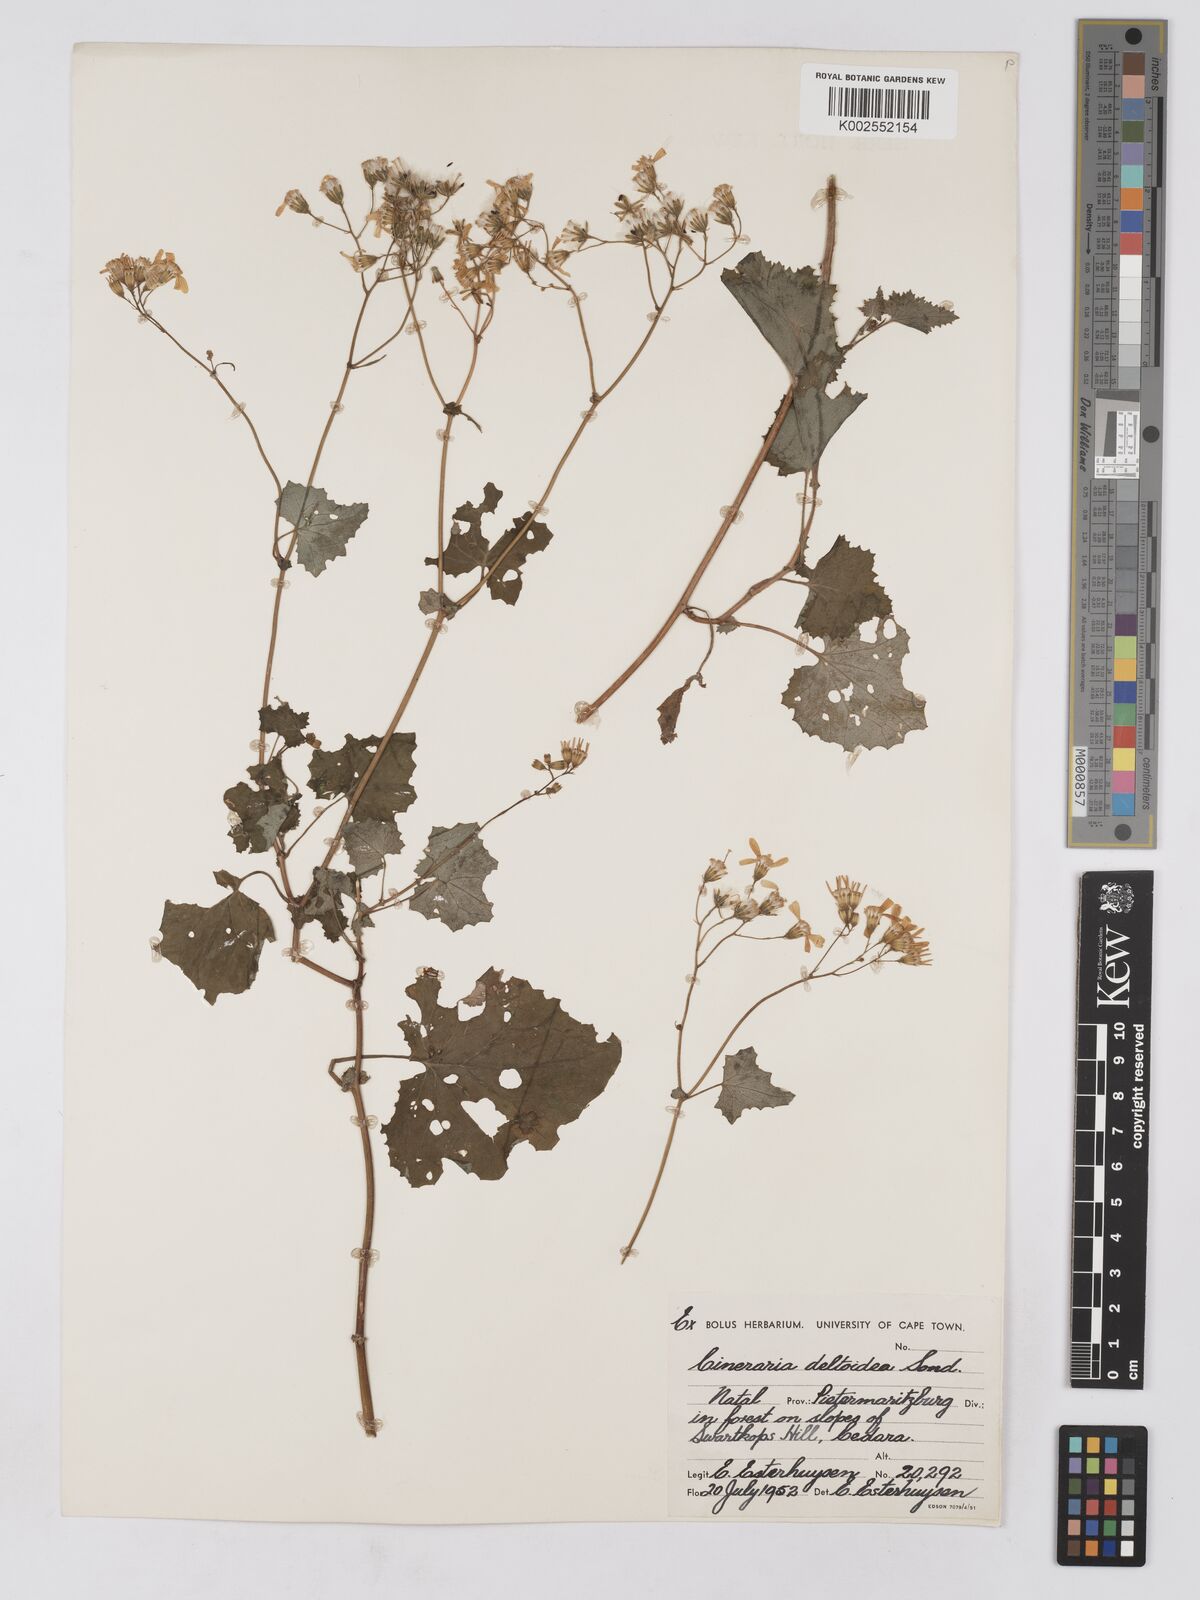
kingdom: Plantae
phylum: Tracheophyta
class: Magnoliopsida
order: Asterales
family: Asteraceae
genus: Cineraria
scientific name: Cineraria deltoidea
